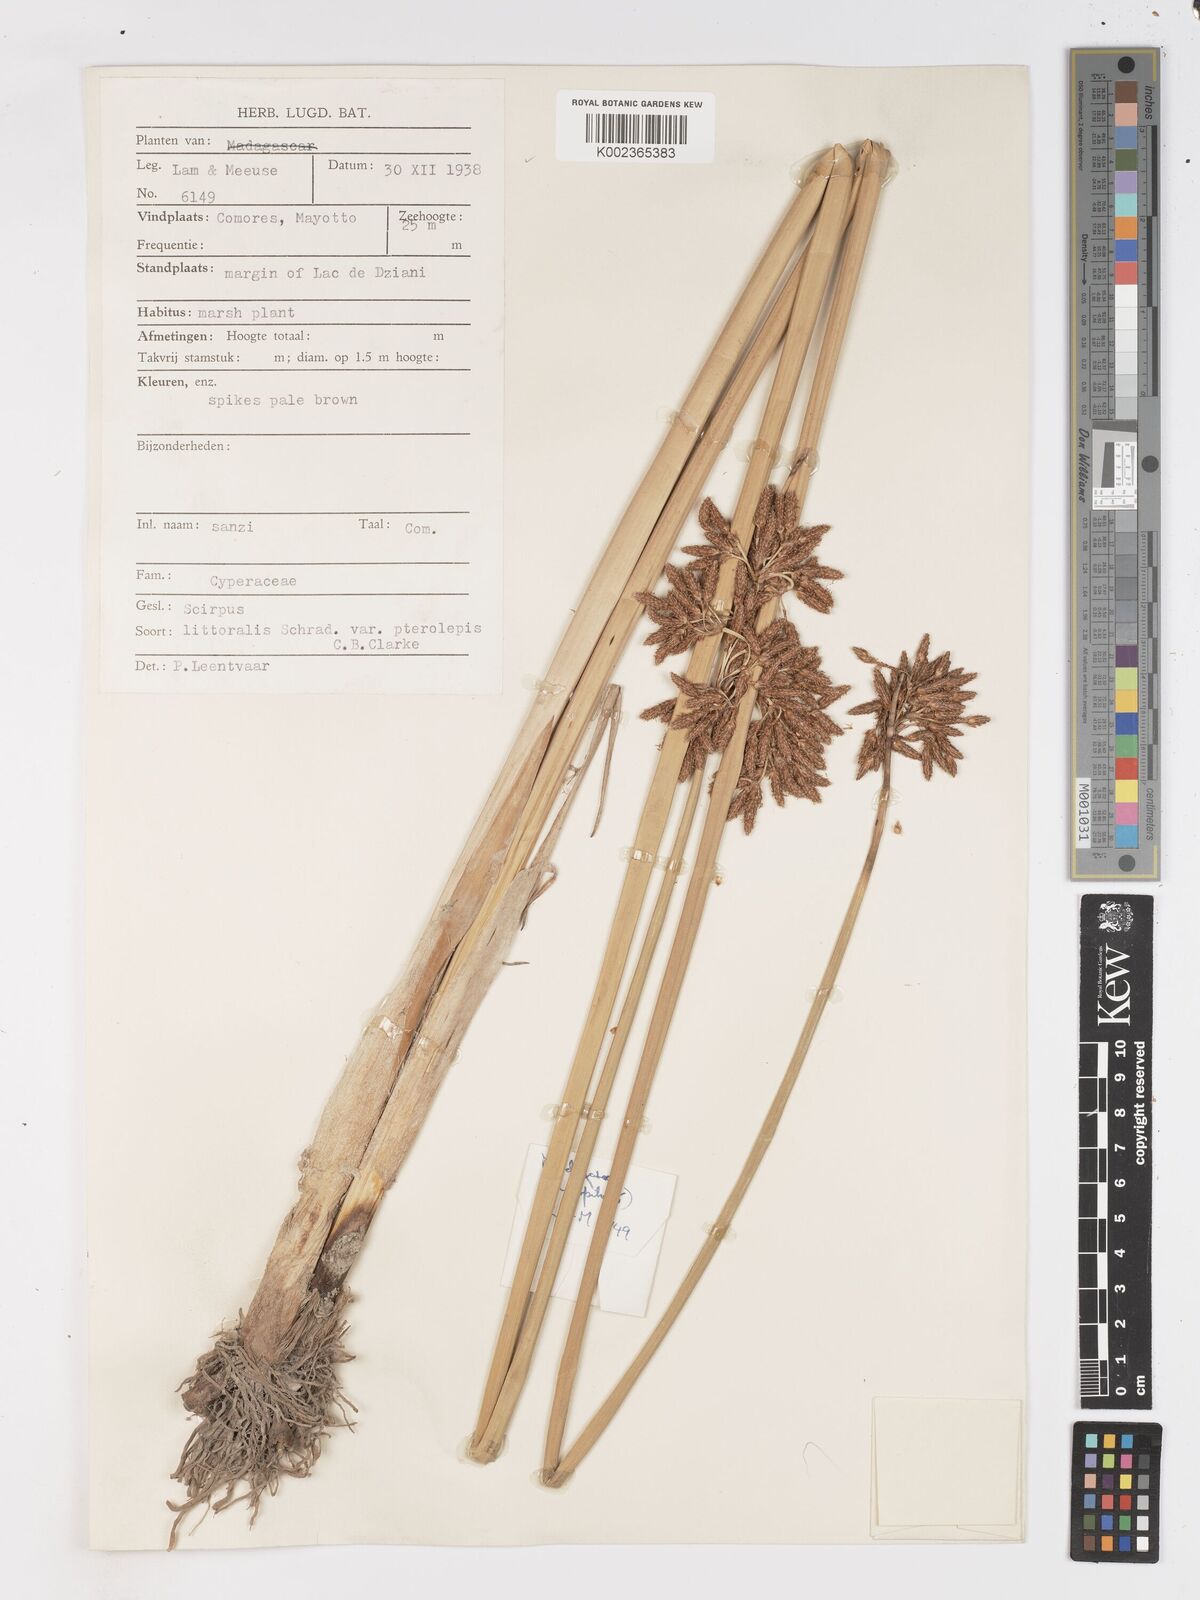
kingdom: Plantae
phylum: Tracheophyta
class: Liliopsida
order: Poales
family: Cyperaceae
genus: Schoenoplectus
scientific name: Schoenoplectus
